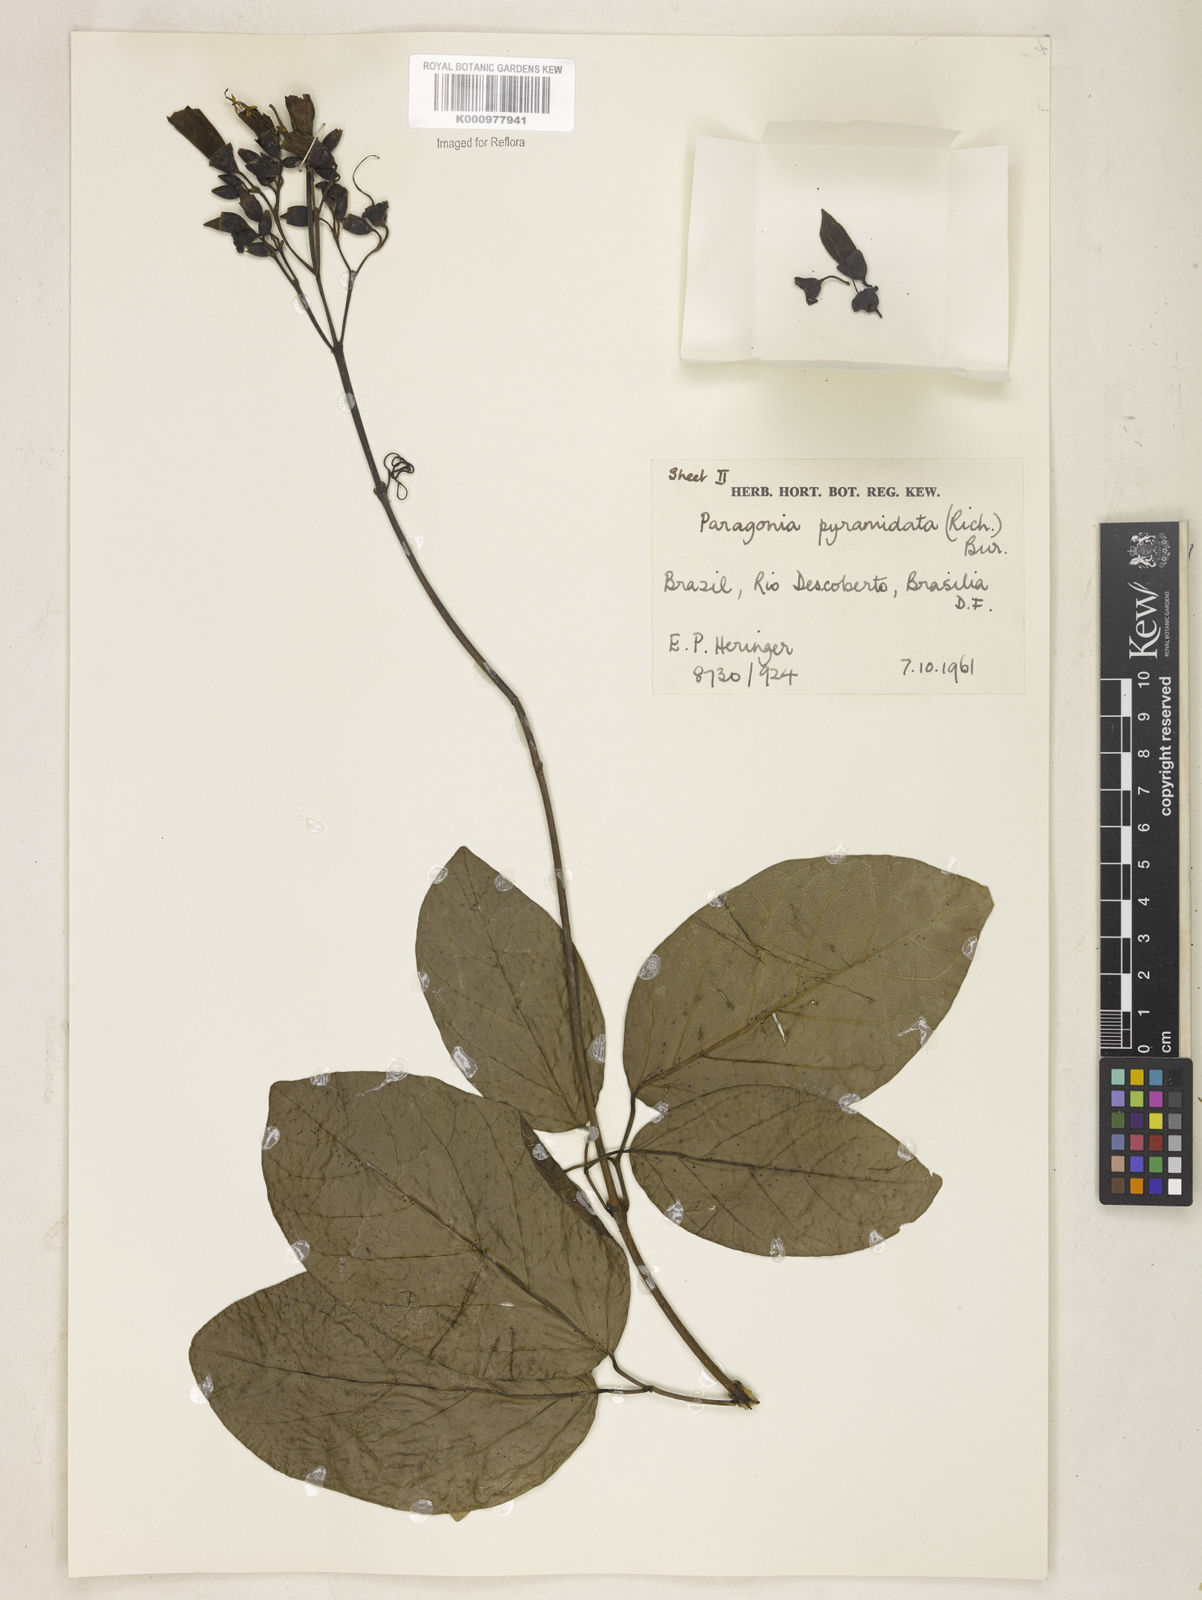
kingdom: Plantae
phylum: Tracheophyta
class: Magnoliopsida
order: Lamiales
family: Bignoniaceae
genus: Tanaecium
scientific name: Tanaecium pyramidatum
